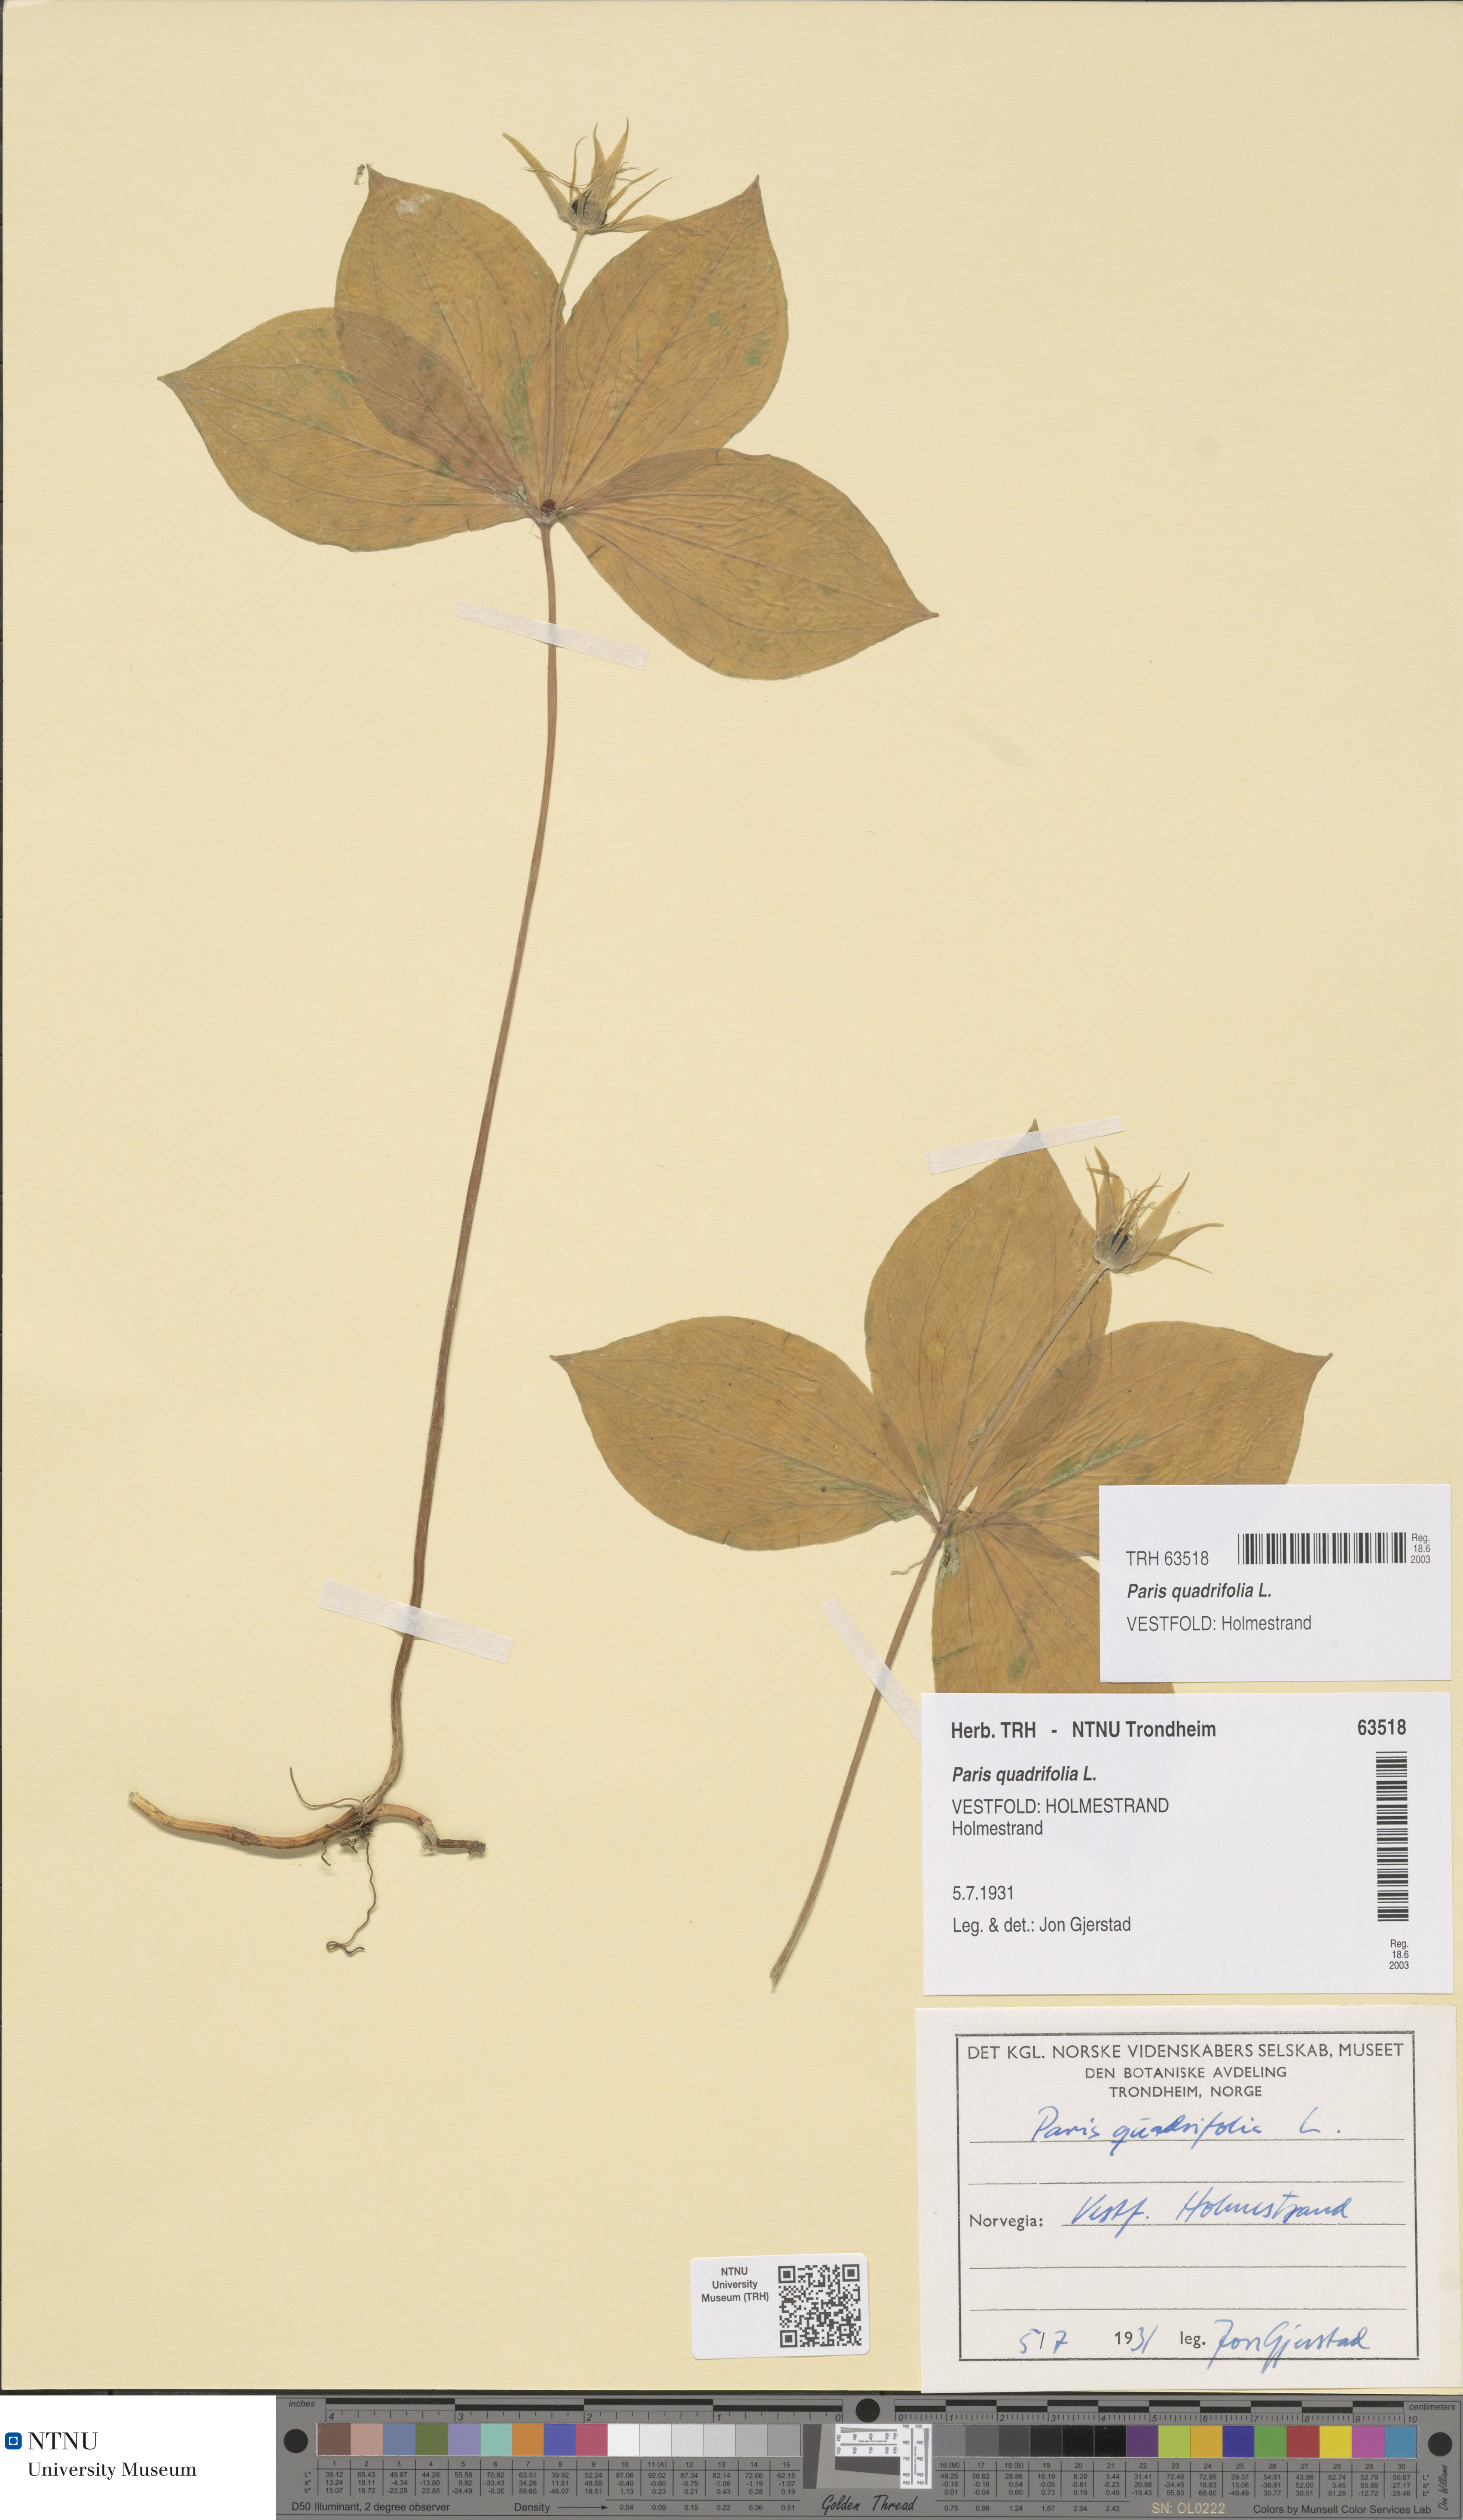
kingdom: Plantae
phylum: Tracheophyta
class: Liliopsida
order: Liliales
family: Melanthiaceae
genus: Paris
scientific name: Paris quadrifolia
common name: Herb-paris
